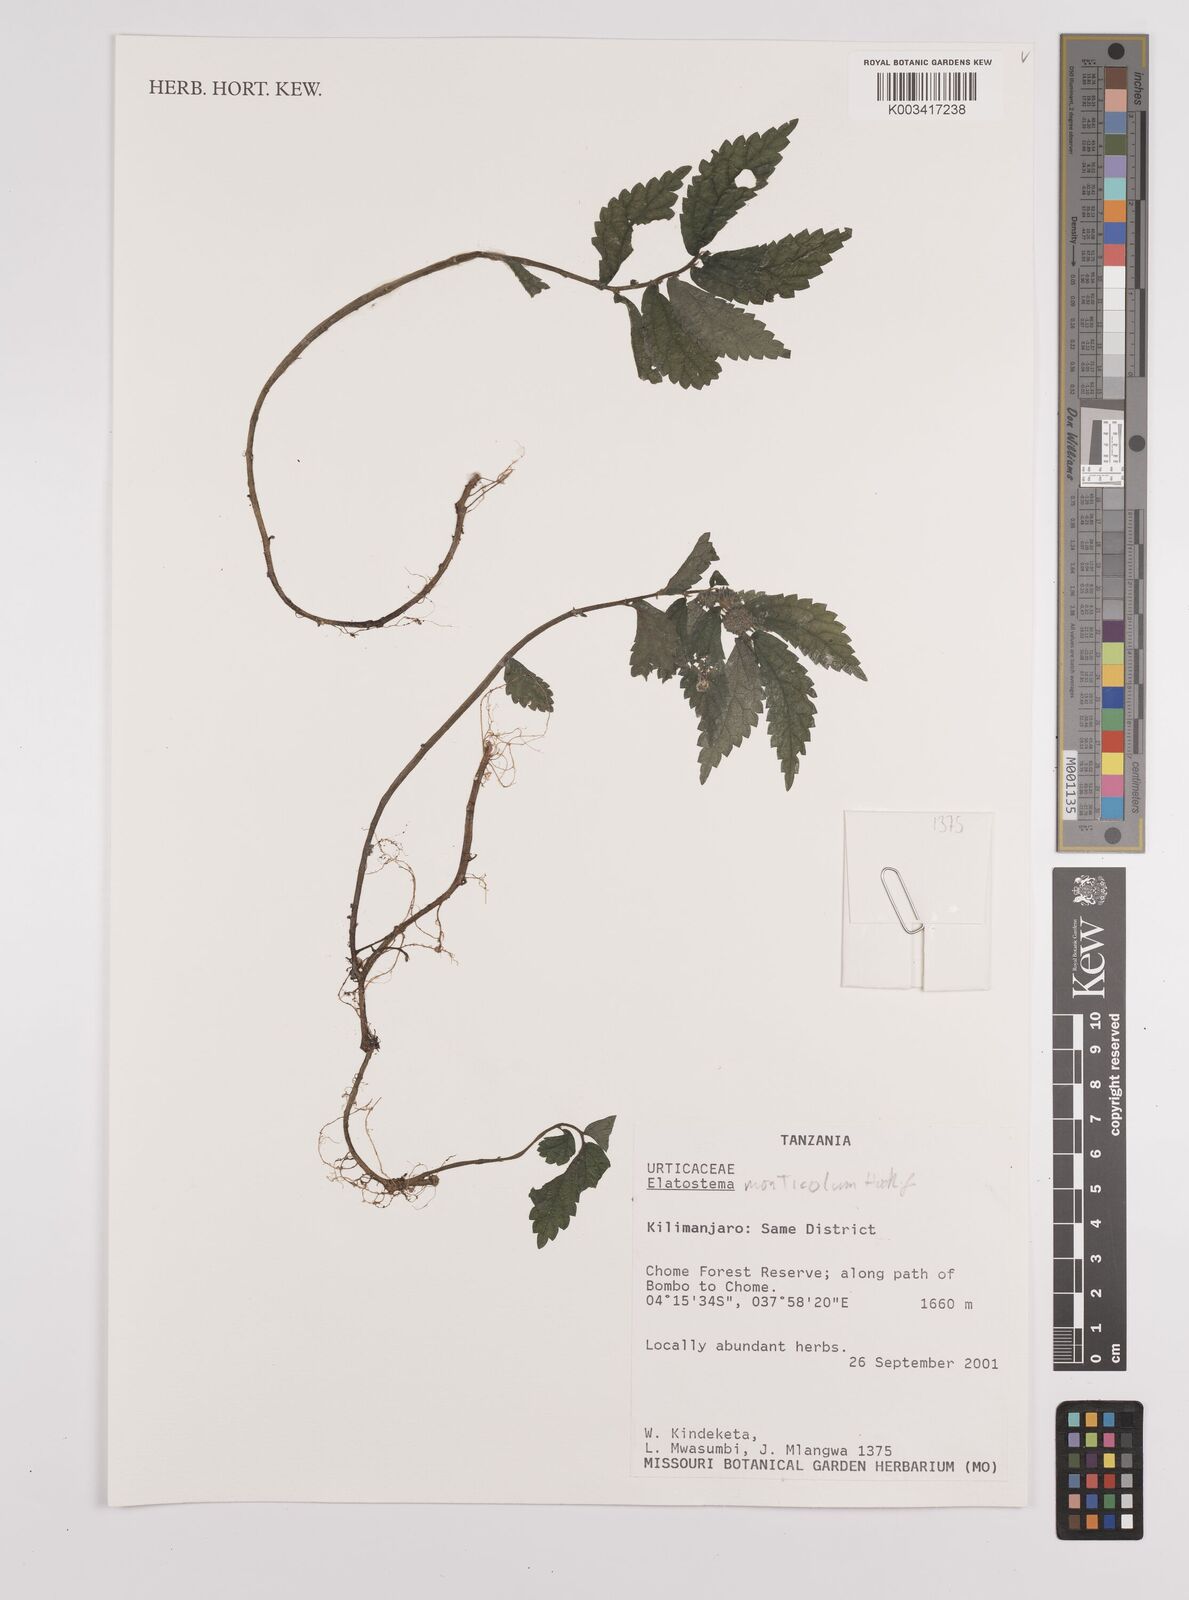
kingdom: Plantae
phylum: Tracheophyta
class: Magnoliopsida
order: Rosales
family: Urticaceae
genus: Elatostema
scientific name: Elatostema monticola
